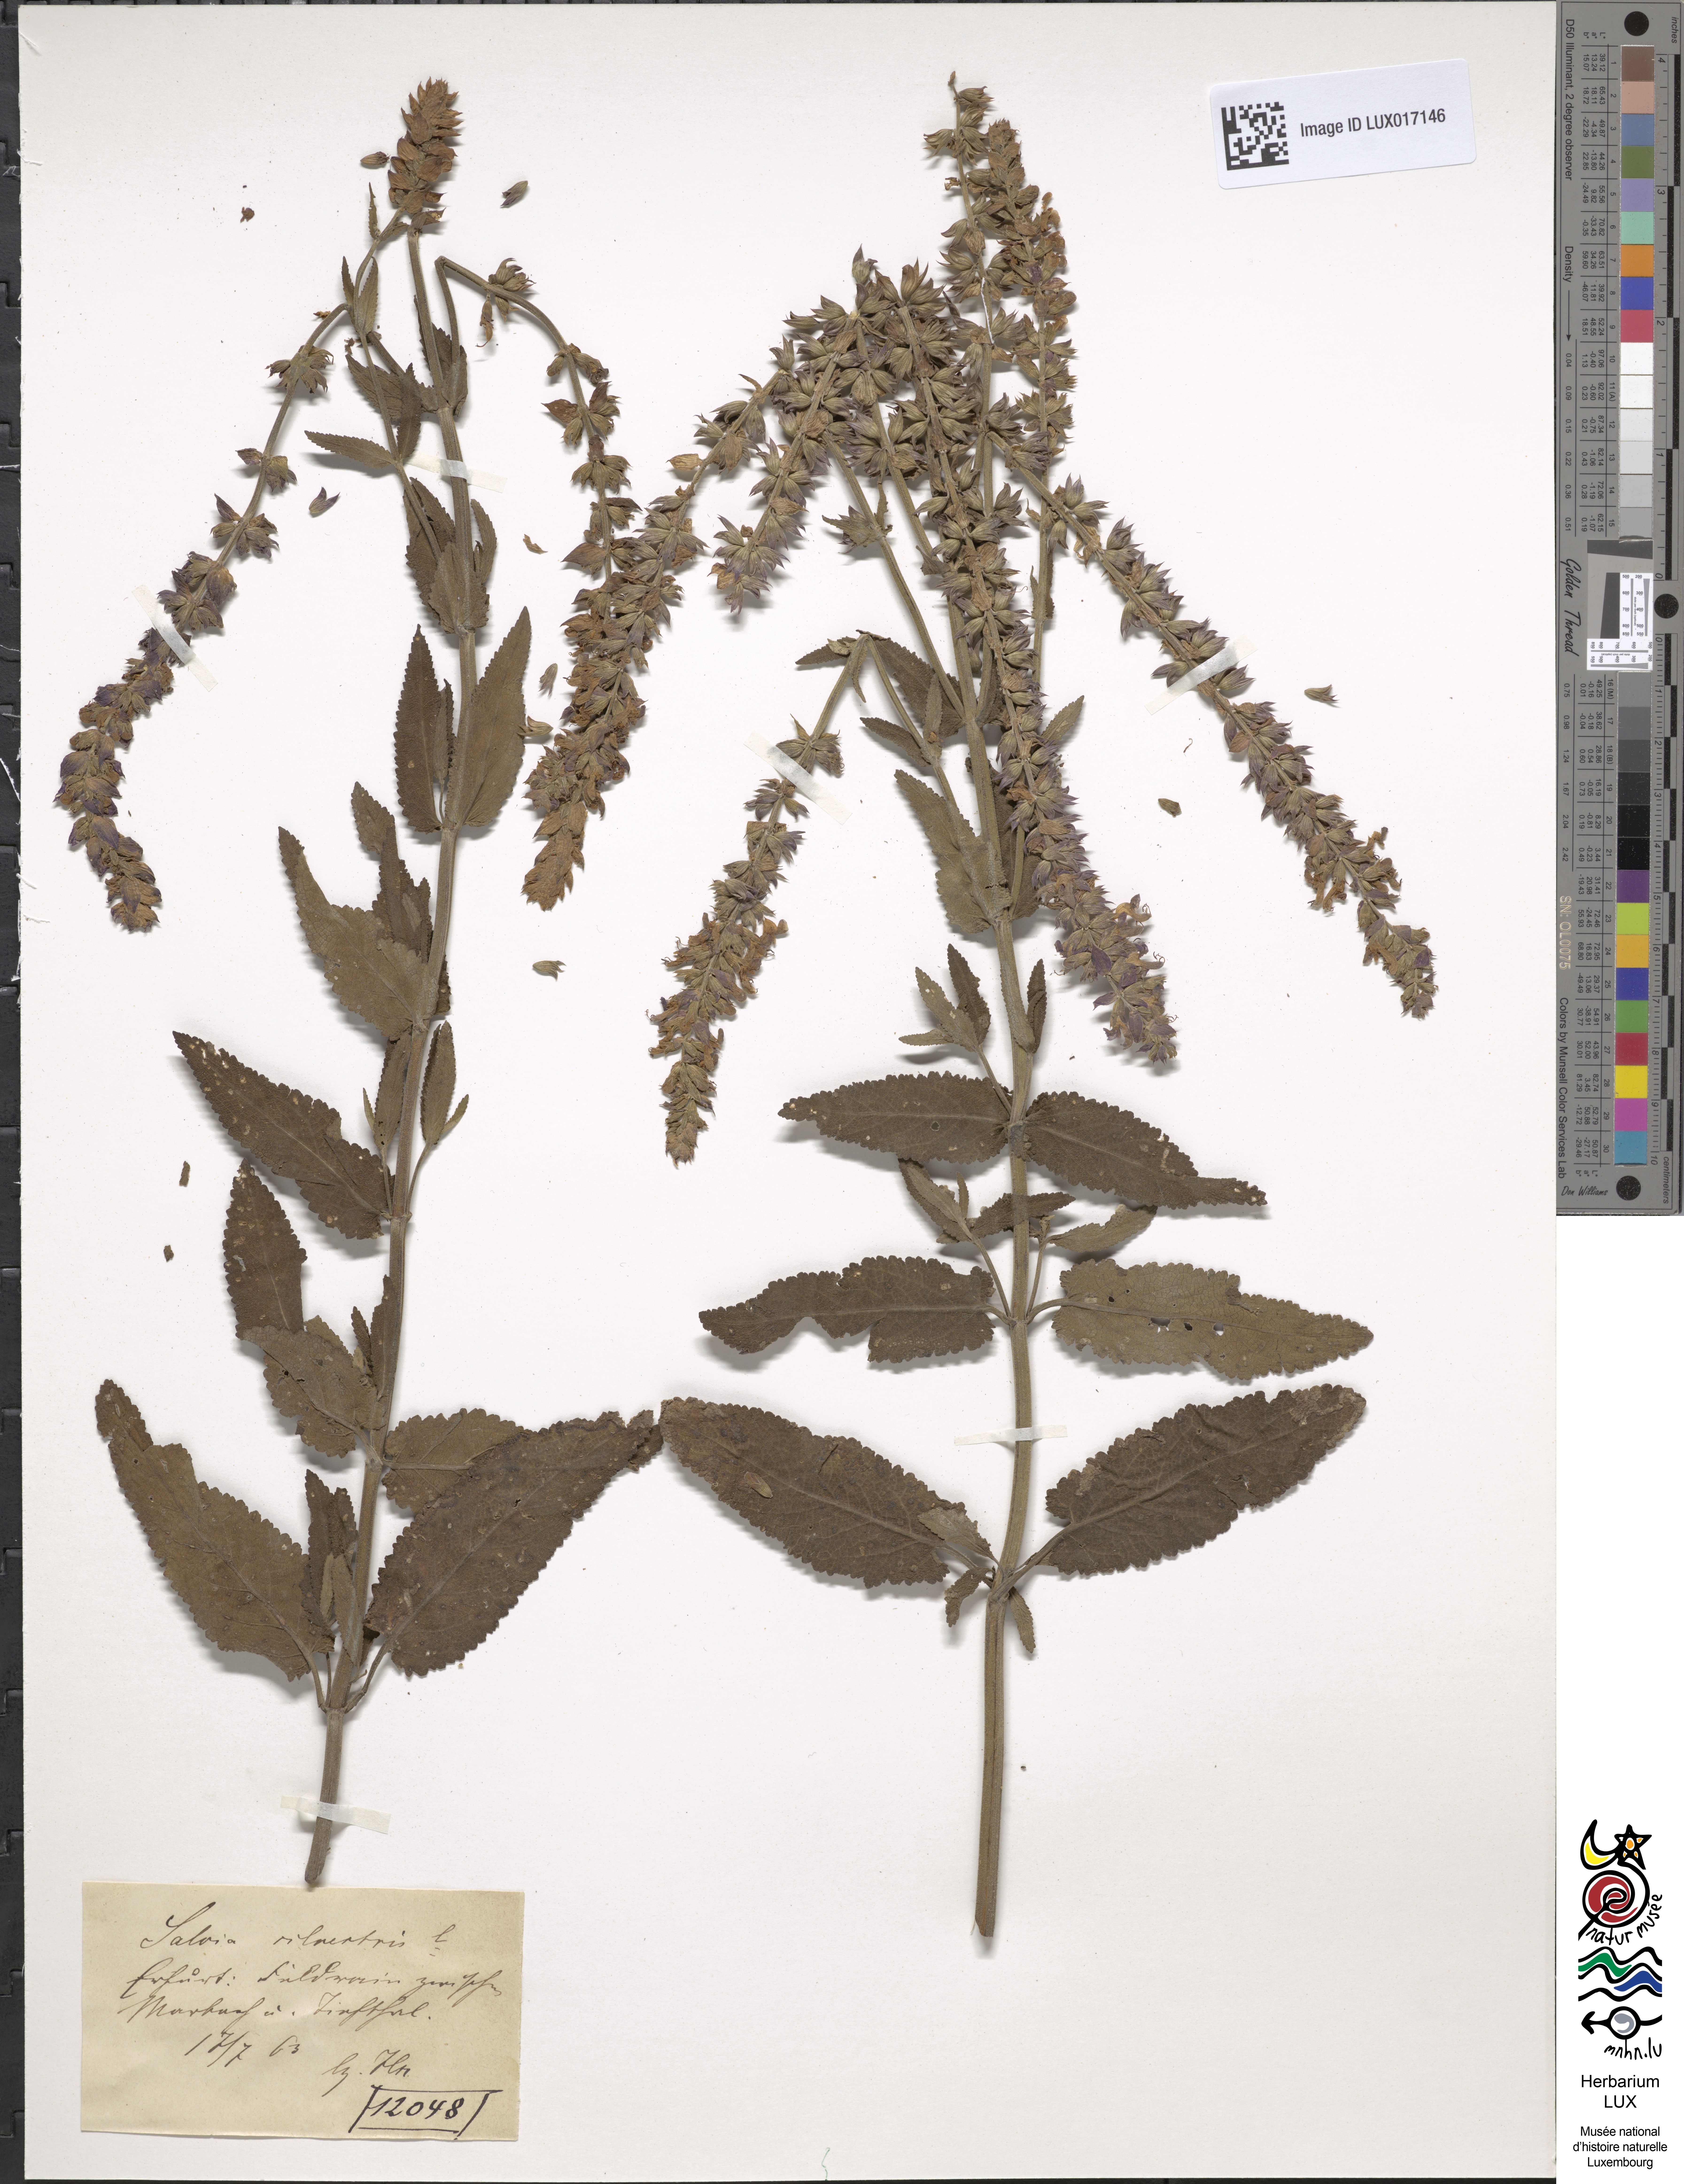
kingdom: Plantae
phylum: Tracheophyta
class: Magnoliopsida
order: Lamiales
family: Lamiaceae
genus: Salvia
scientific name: Salvia nemorosa
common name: Balkan clary
